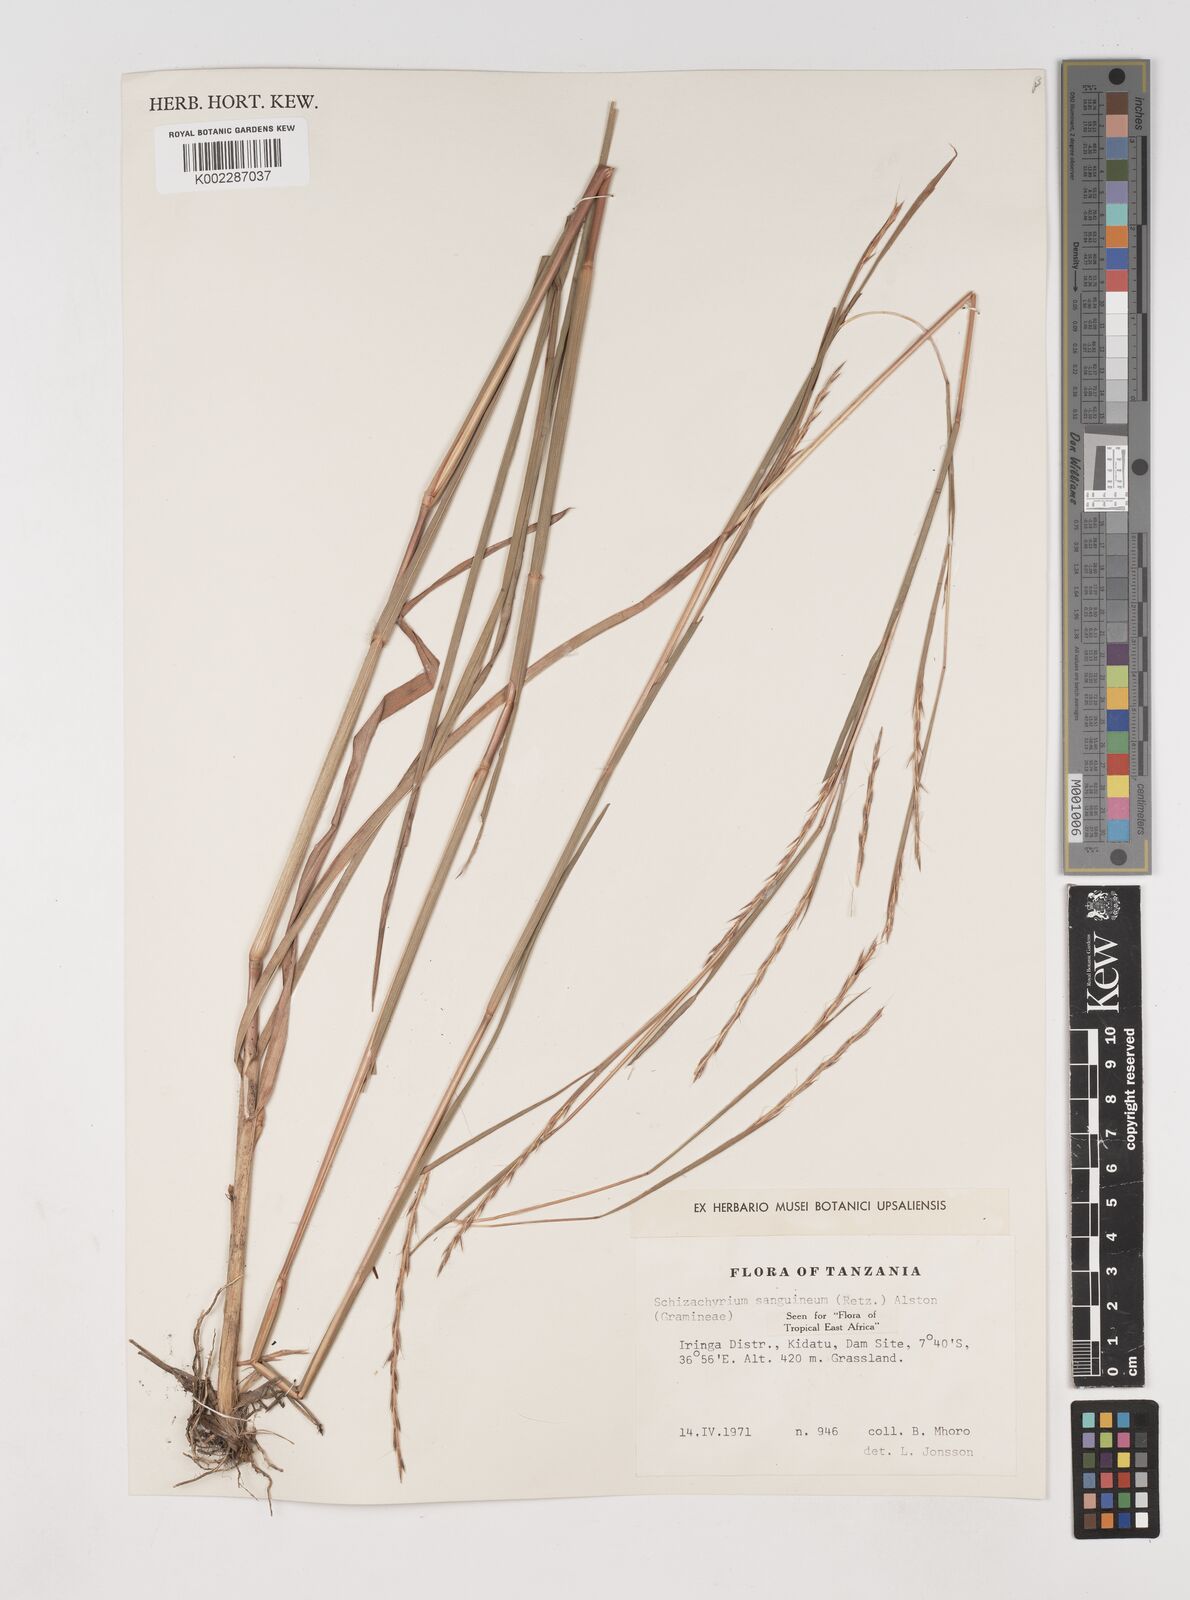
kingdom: Plantae
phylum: Tracheophyta
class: Liliopsida
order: Poales
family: Poaceae
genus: Schizachyrium
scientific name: Schizachyrium sanguineum
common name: Crimson bluestem
